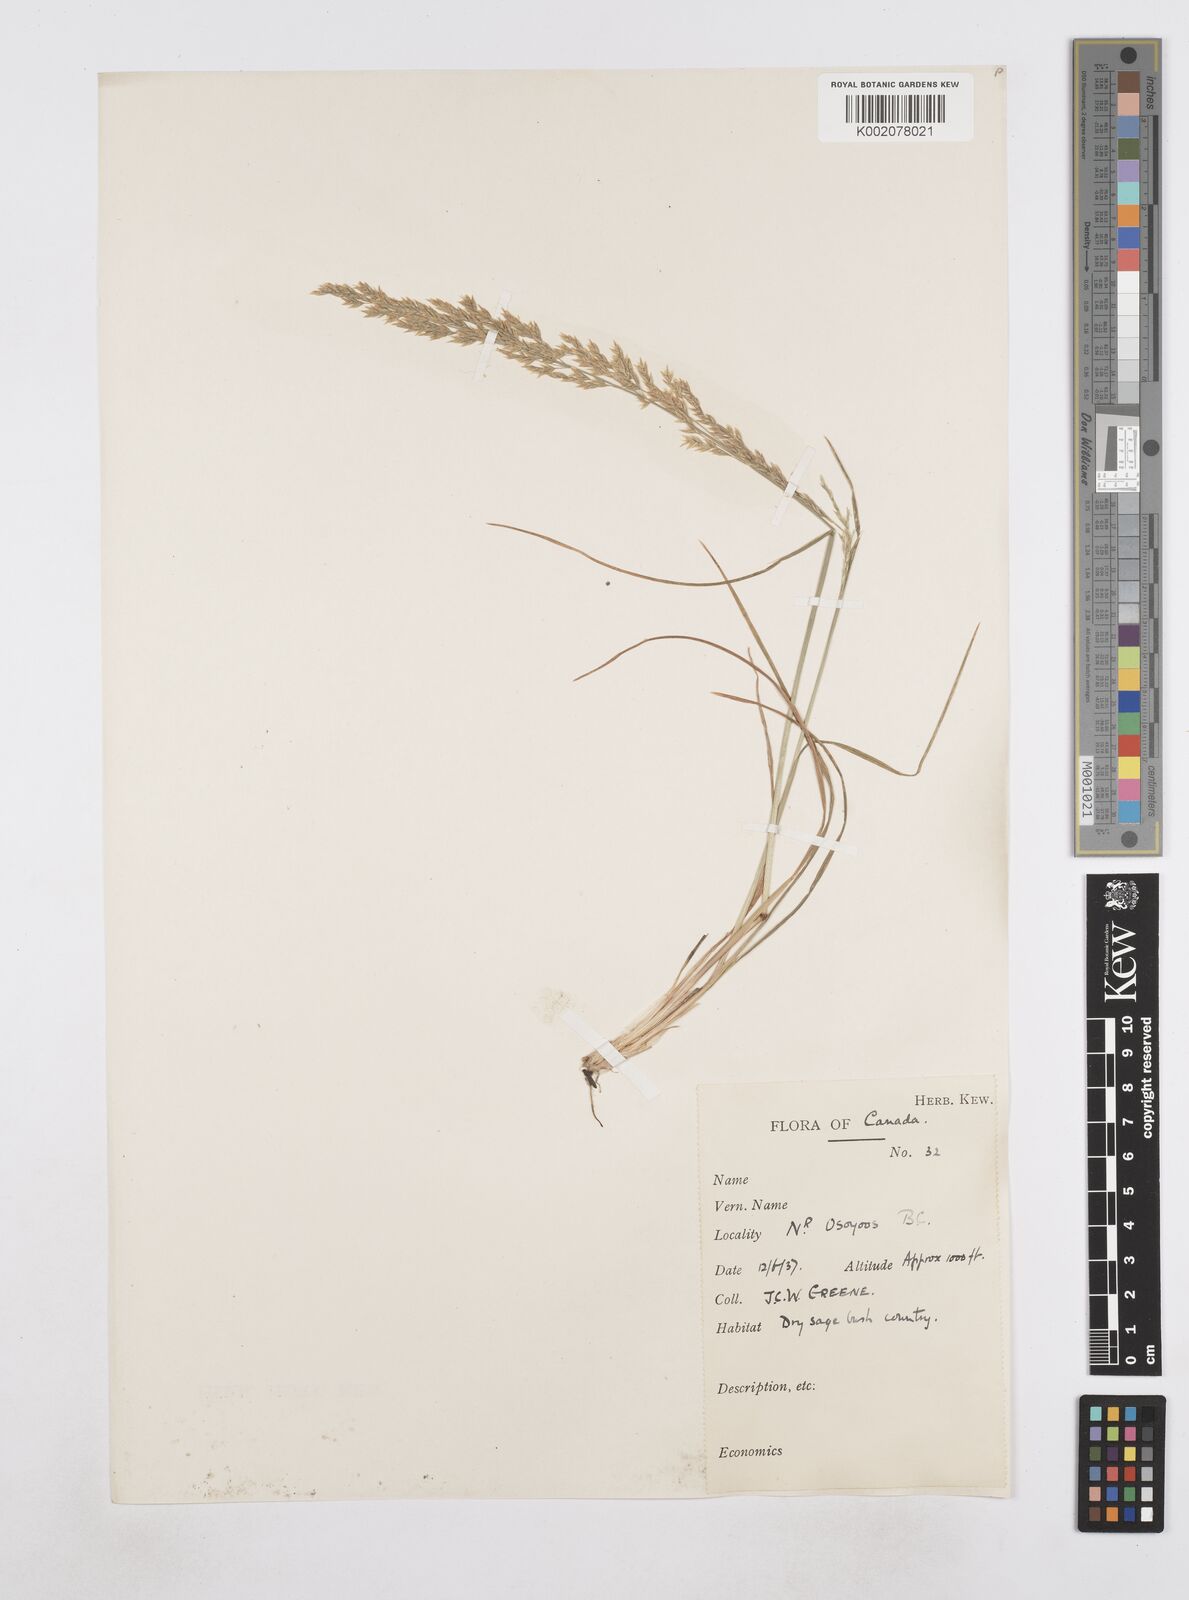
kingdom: Plantae
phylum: Tracheophyta
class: Liliopsida
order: Poales
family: Poaceae
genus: Poa
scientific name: Poa
